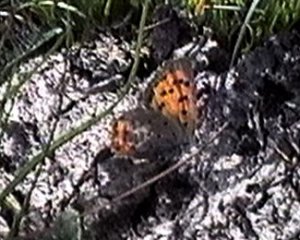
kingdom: Animalia
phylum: Arthropoda
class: Insecta
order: Lepidoptera
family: Lycaenidae
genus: Lycaena
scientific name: Lycaena phlaeas
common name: American Copper
